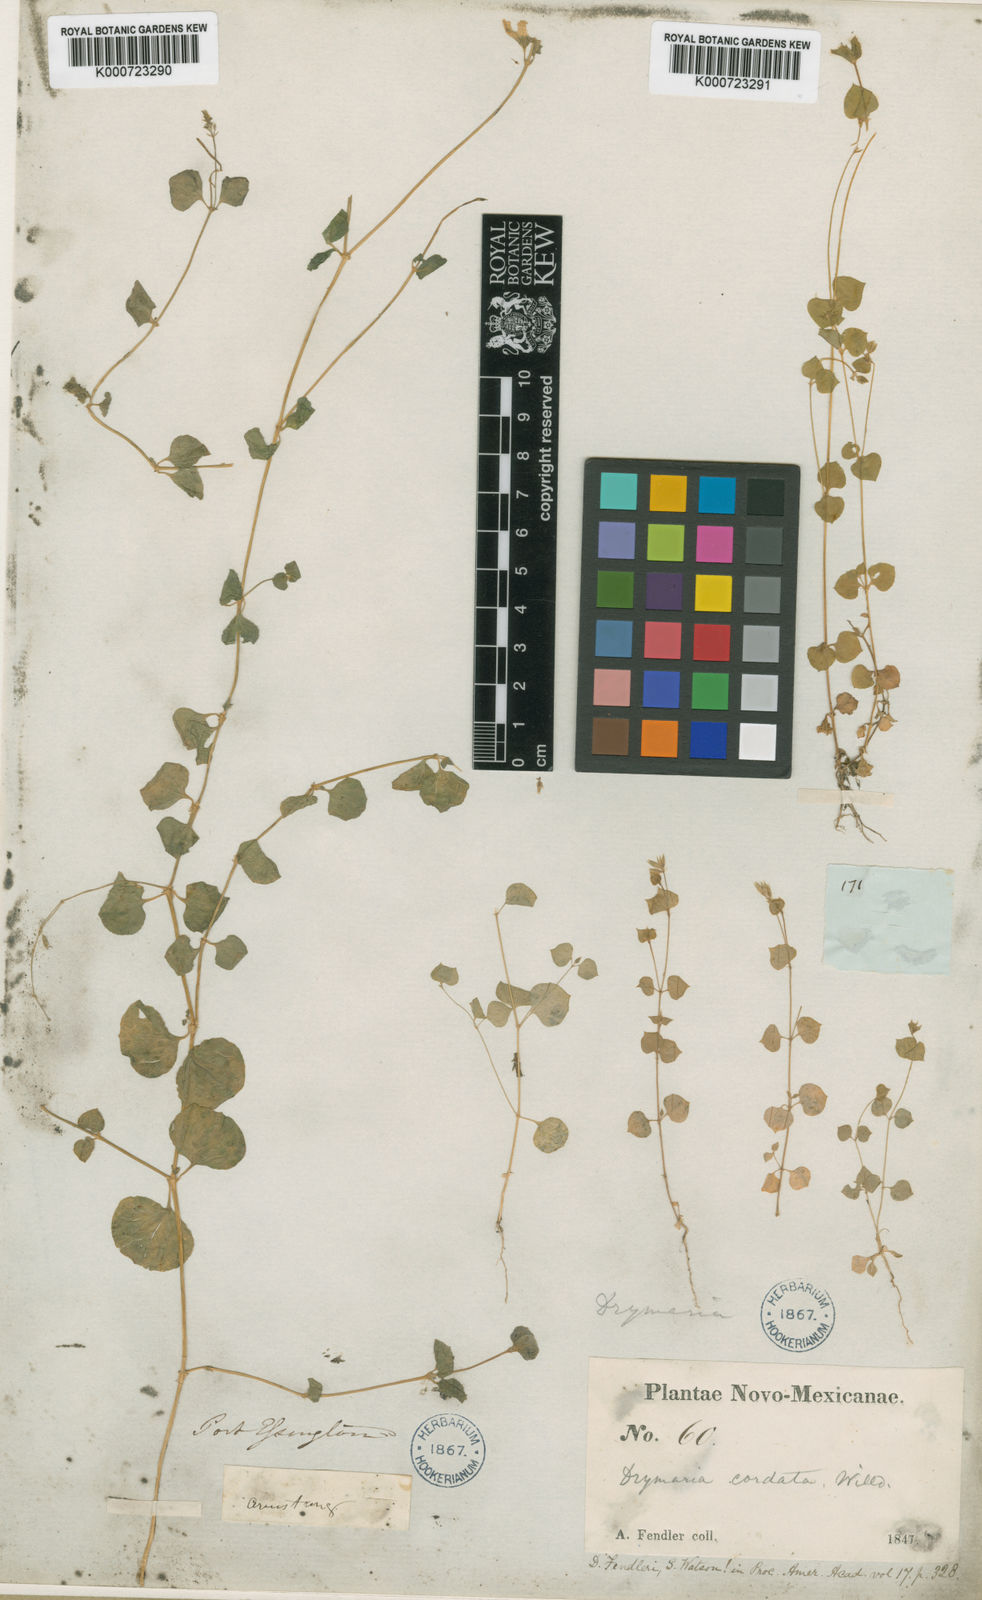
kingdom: Plantae
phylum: Tracheophyta
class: Magnoliopsida
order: Caryophyllales
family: Caryophyllaceae
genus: Drymaria
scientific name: Drymaria glandulosa
